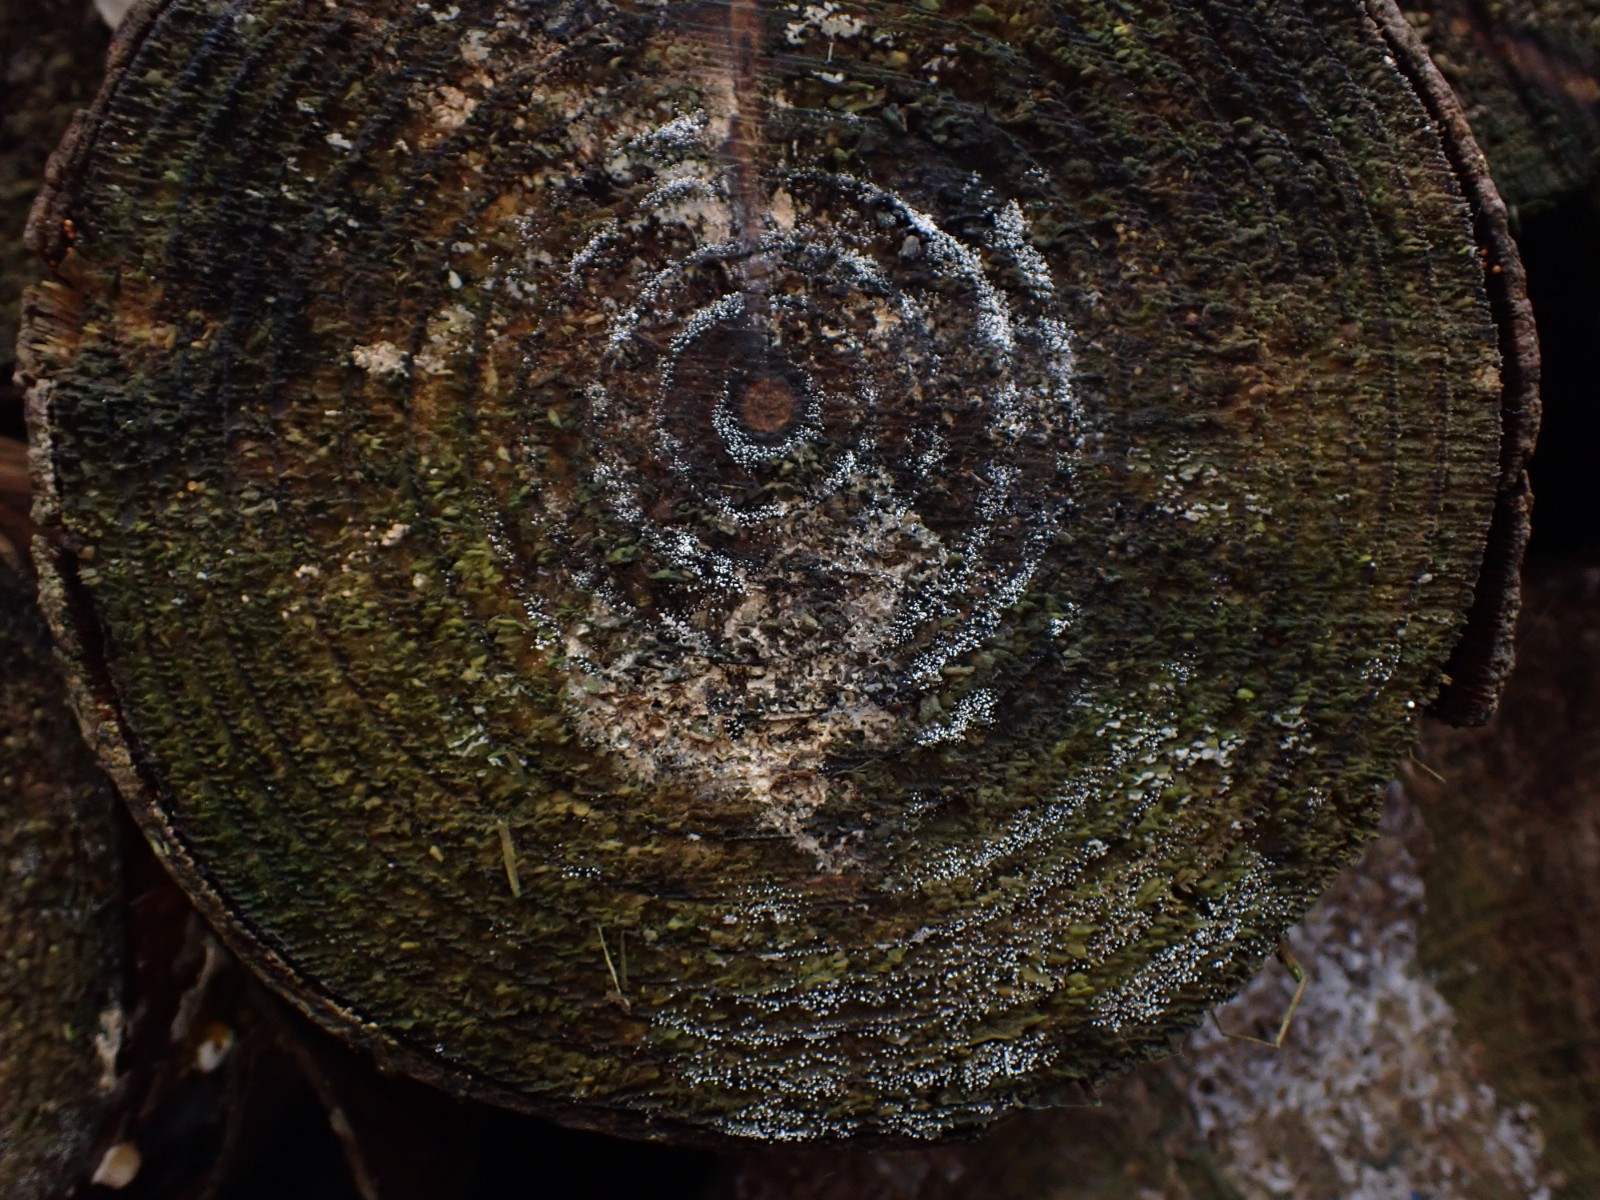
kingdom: Fungi
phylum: Ascomycota
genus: Sphaeridium
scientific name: Sphaeridium candidulum
